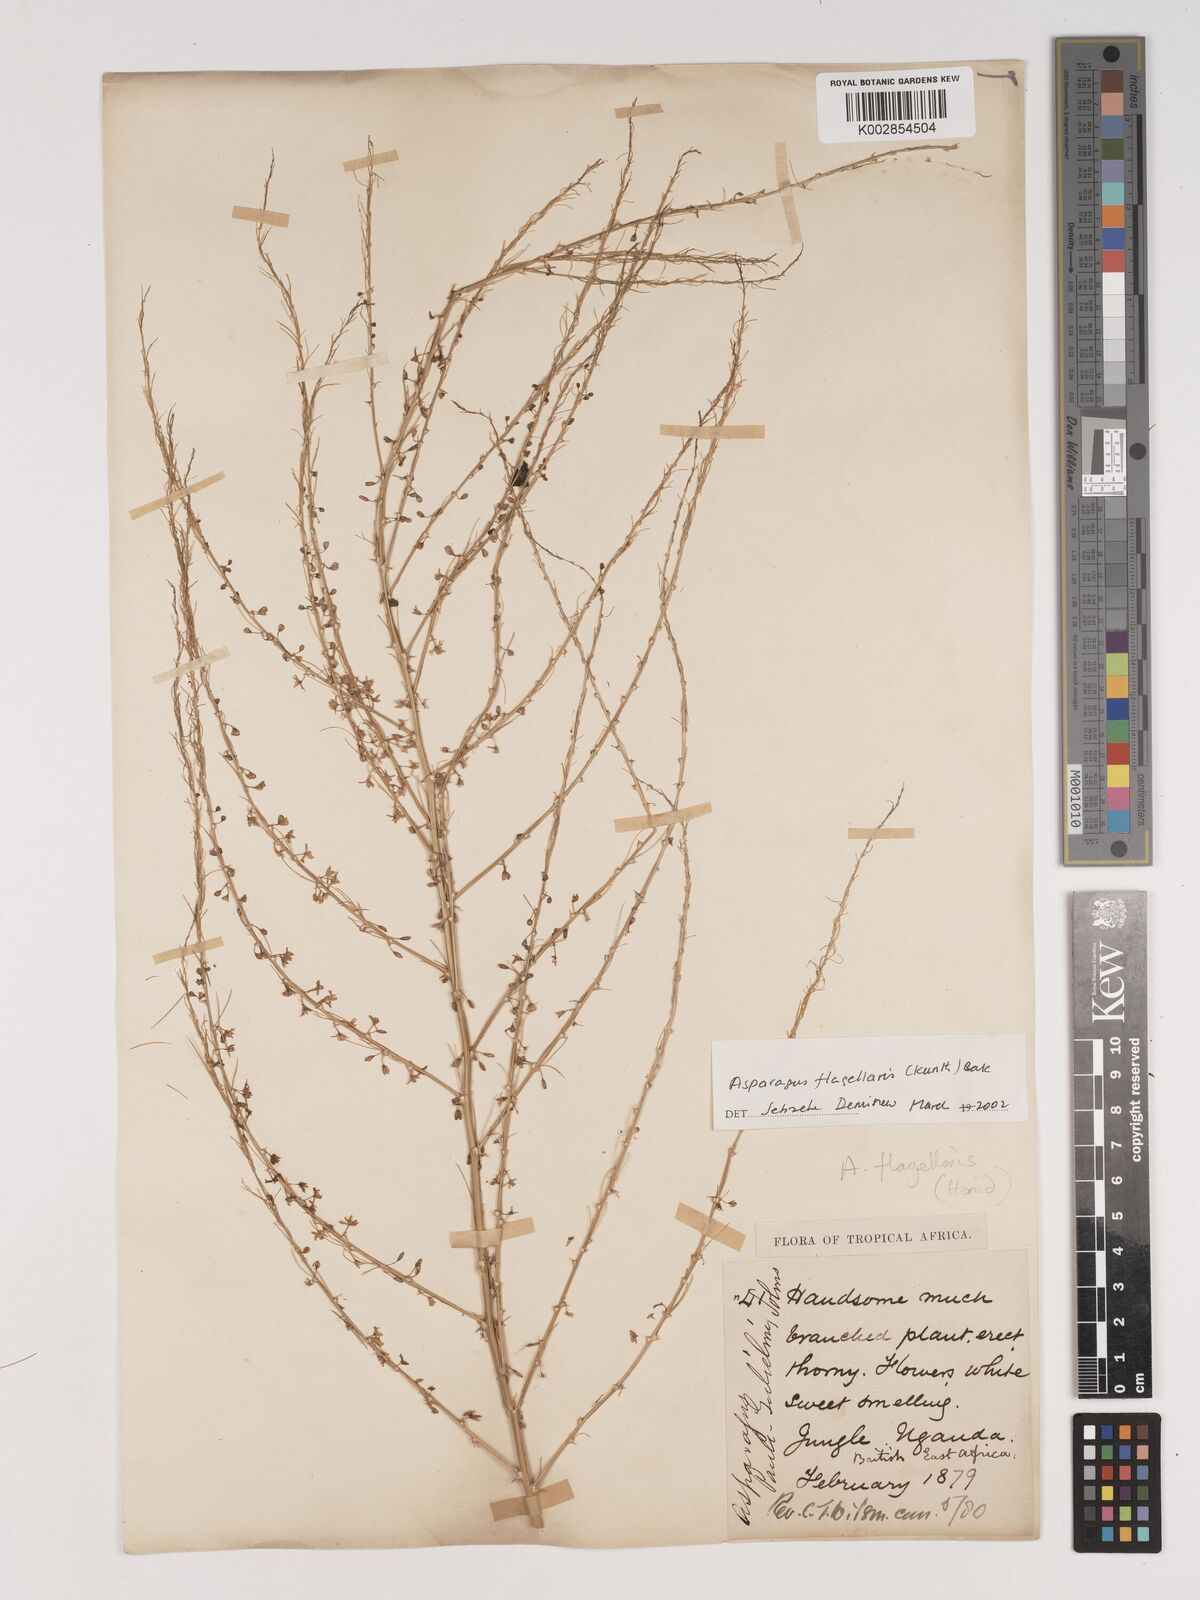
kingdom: Plantae
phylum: Tracheophyta
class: Liliopsida
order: Asparagales
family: Asparagaceae
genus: Asparagus
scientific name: Asparagus flagellaris
